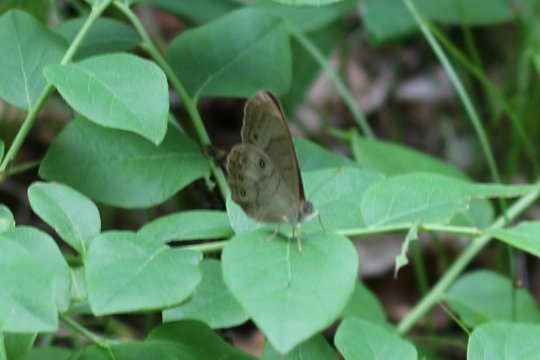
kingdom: Animalia
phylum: Arthropoda
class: Insecta
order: Lepidoptera
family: Nymphalidae
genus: Lethe
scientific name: Lethe eurydice
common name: Appalachian Eyed Brown
